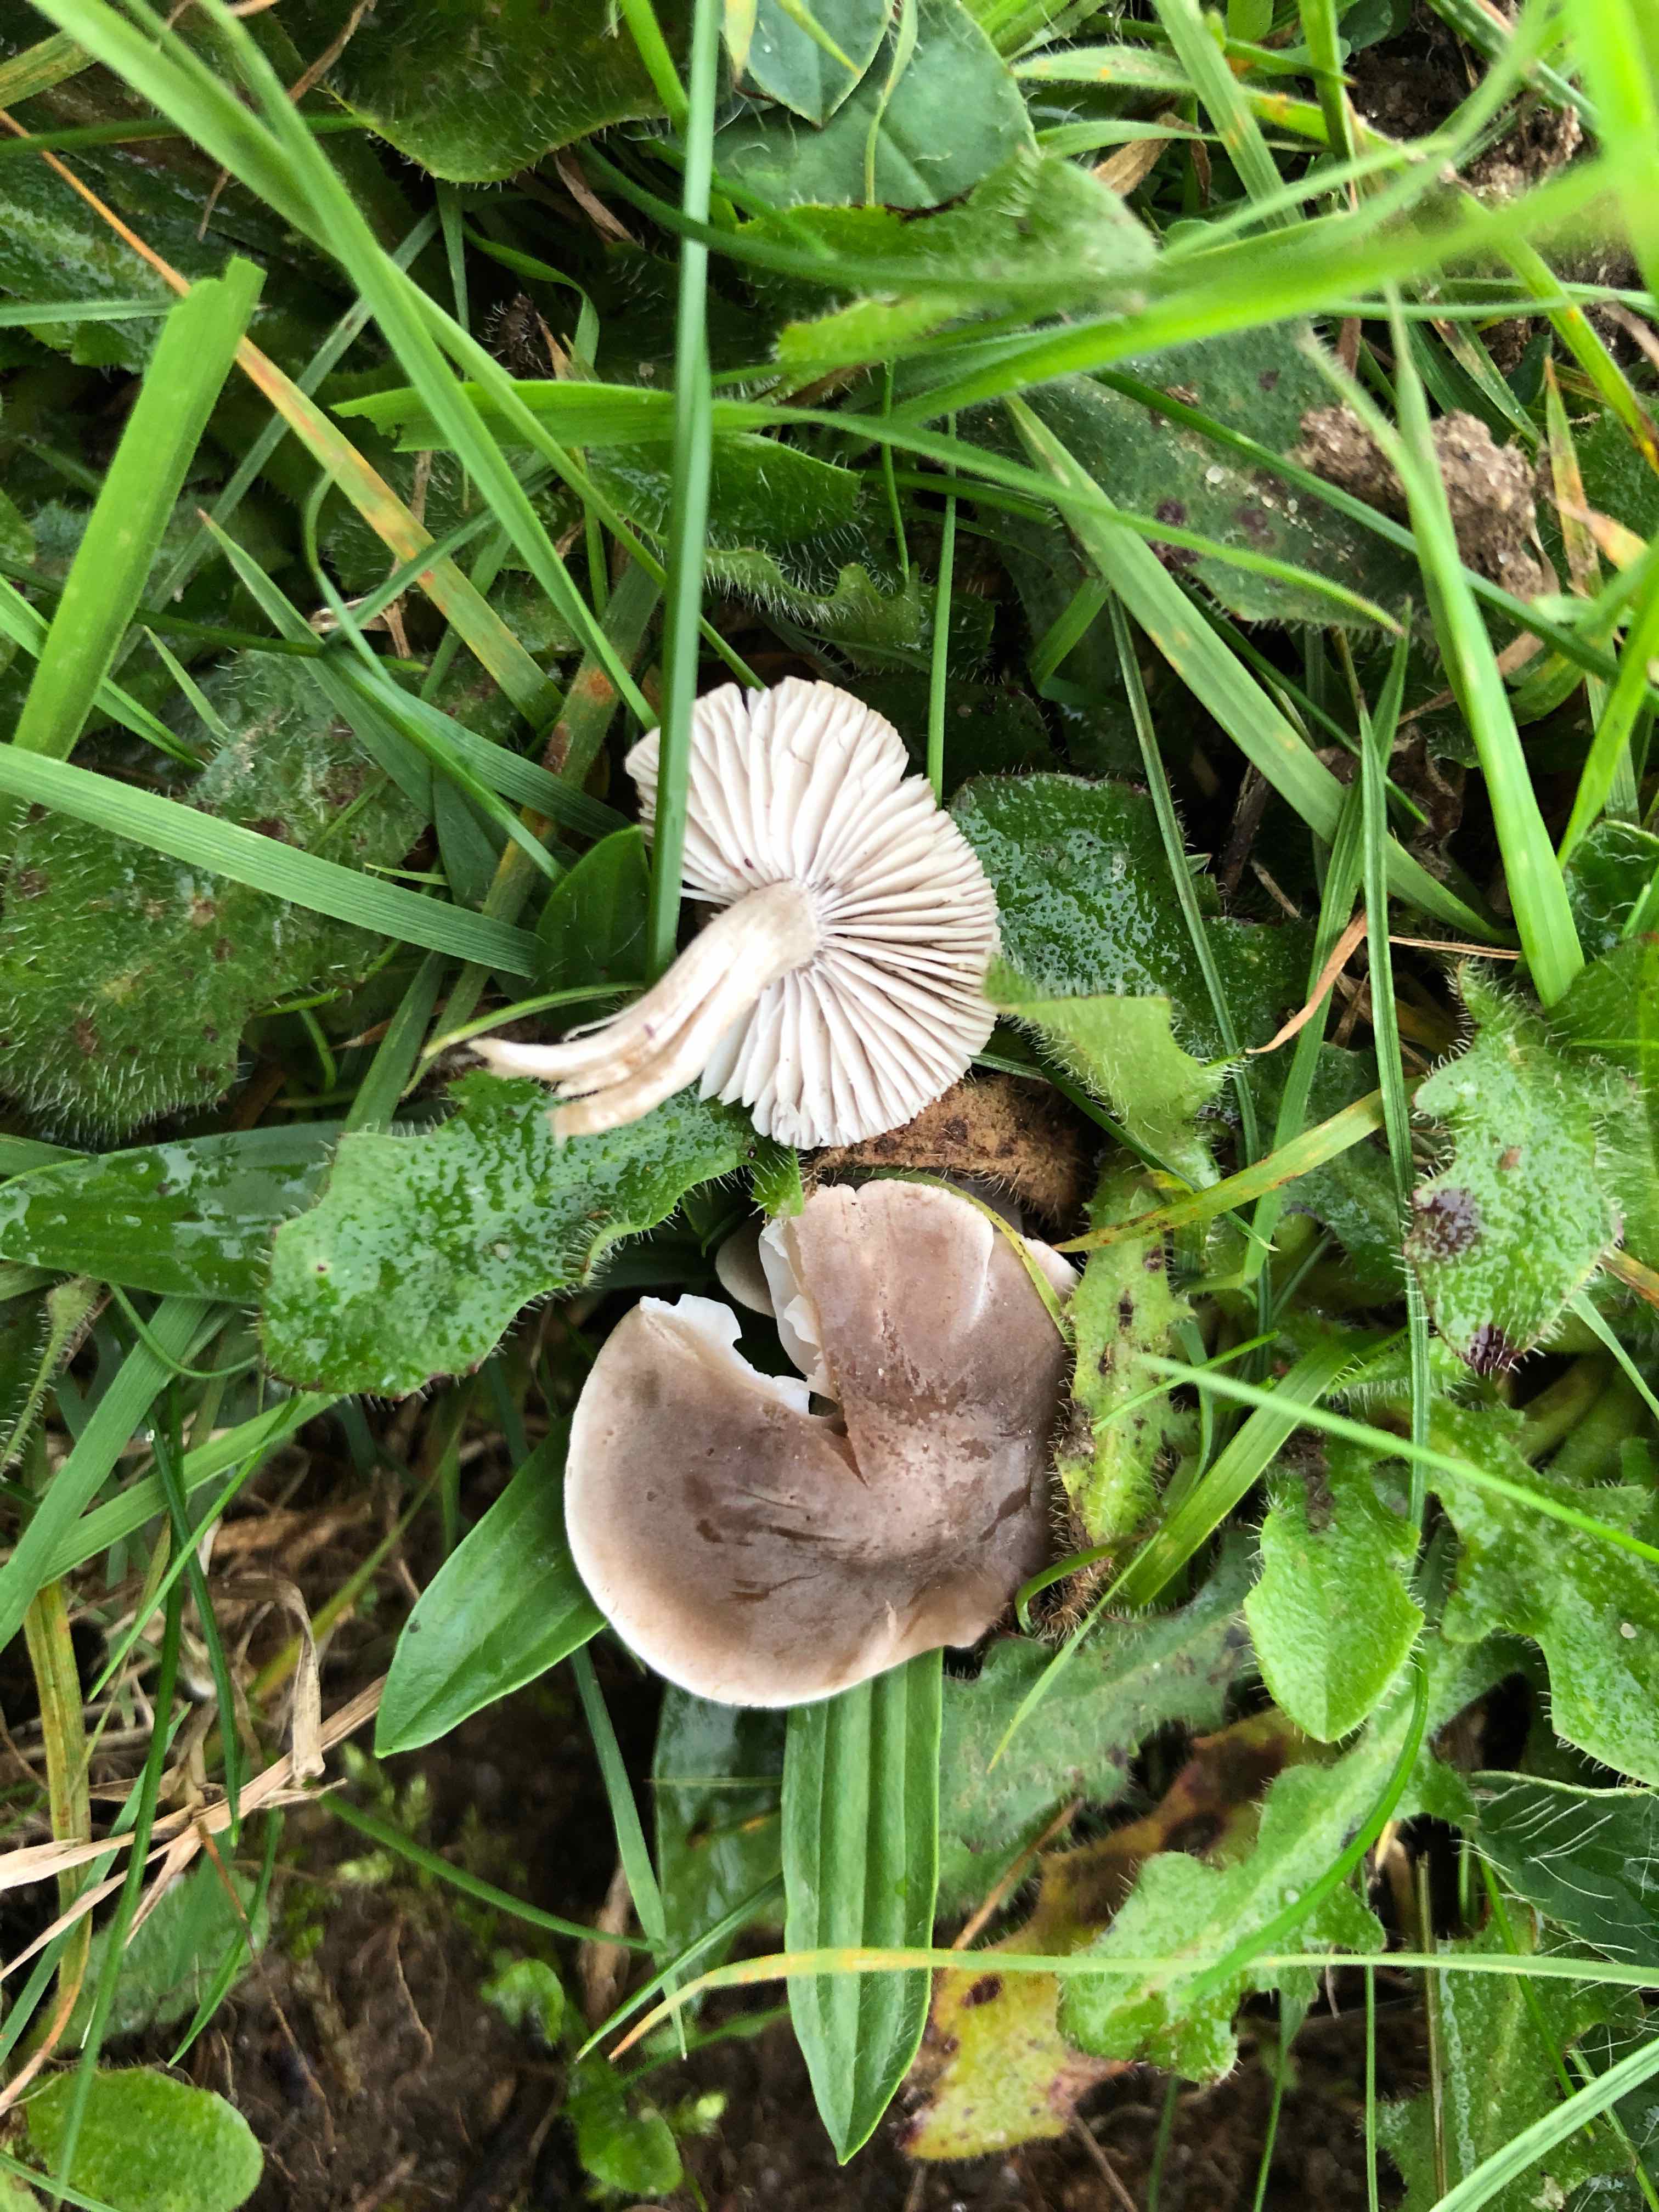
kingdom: Fungi
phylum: Basidiomycota
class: Agaricomycetes
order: Agaricales
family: Tricholomataceae
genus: Dermoloma
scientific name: Dermoloma cuneifolium
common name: eng-nonnehat
